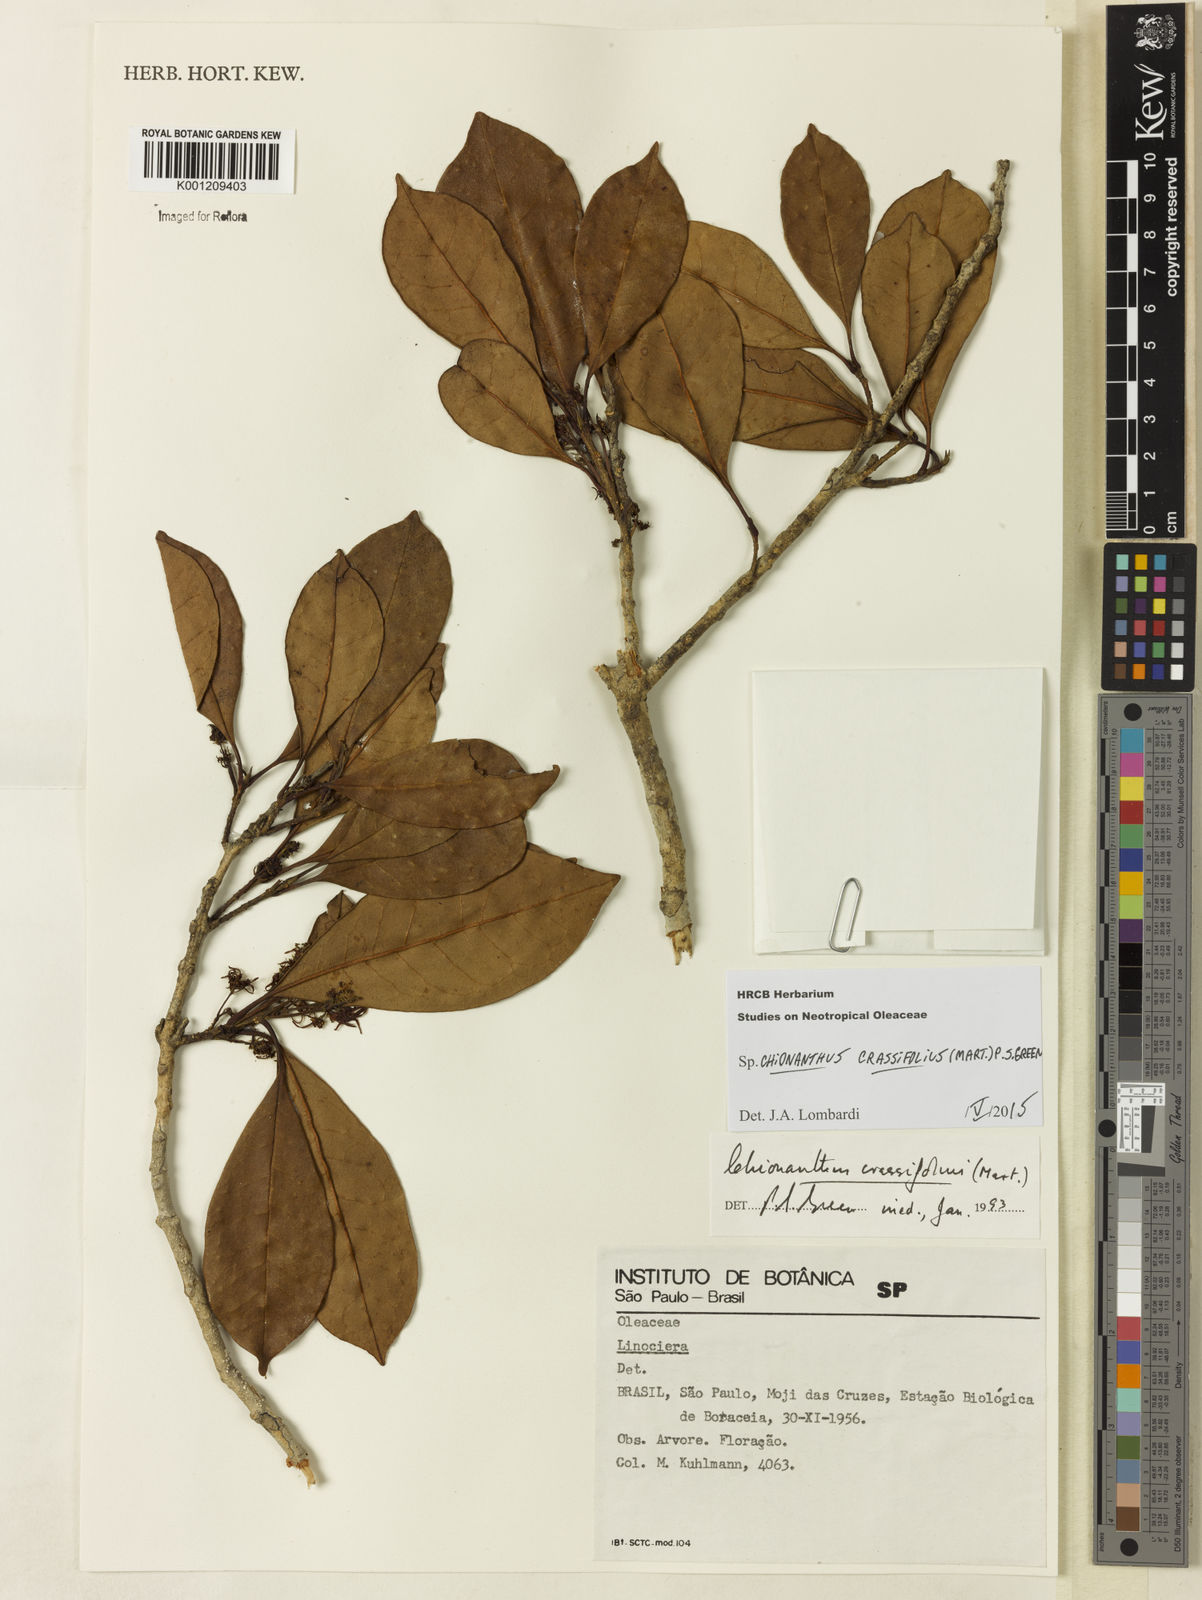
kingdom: Plantae
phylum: Tracheophyta
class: Magnoliopsida
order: Lamiales
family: Oleaceae
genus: Chionanthus
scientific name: Chionanthus crassifolius
